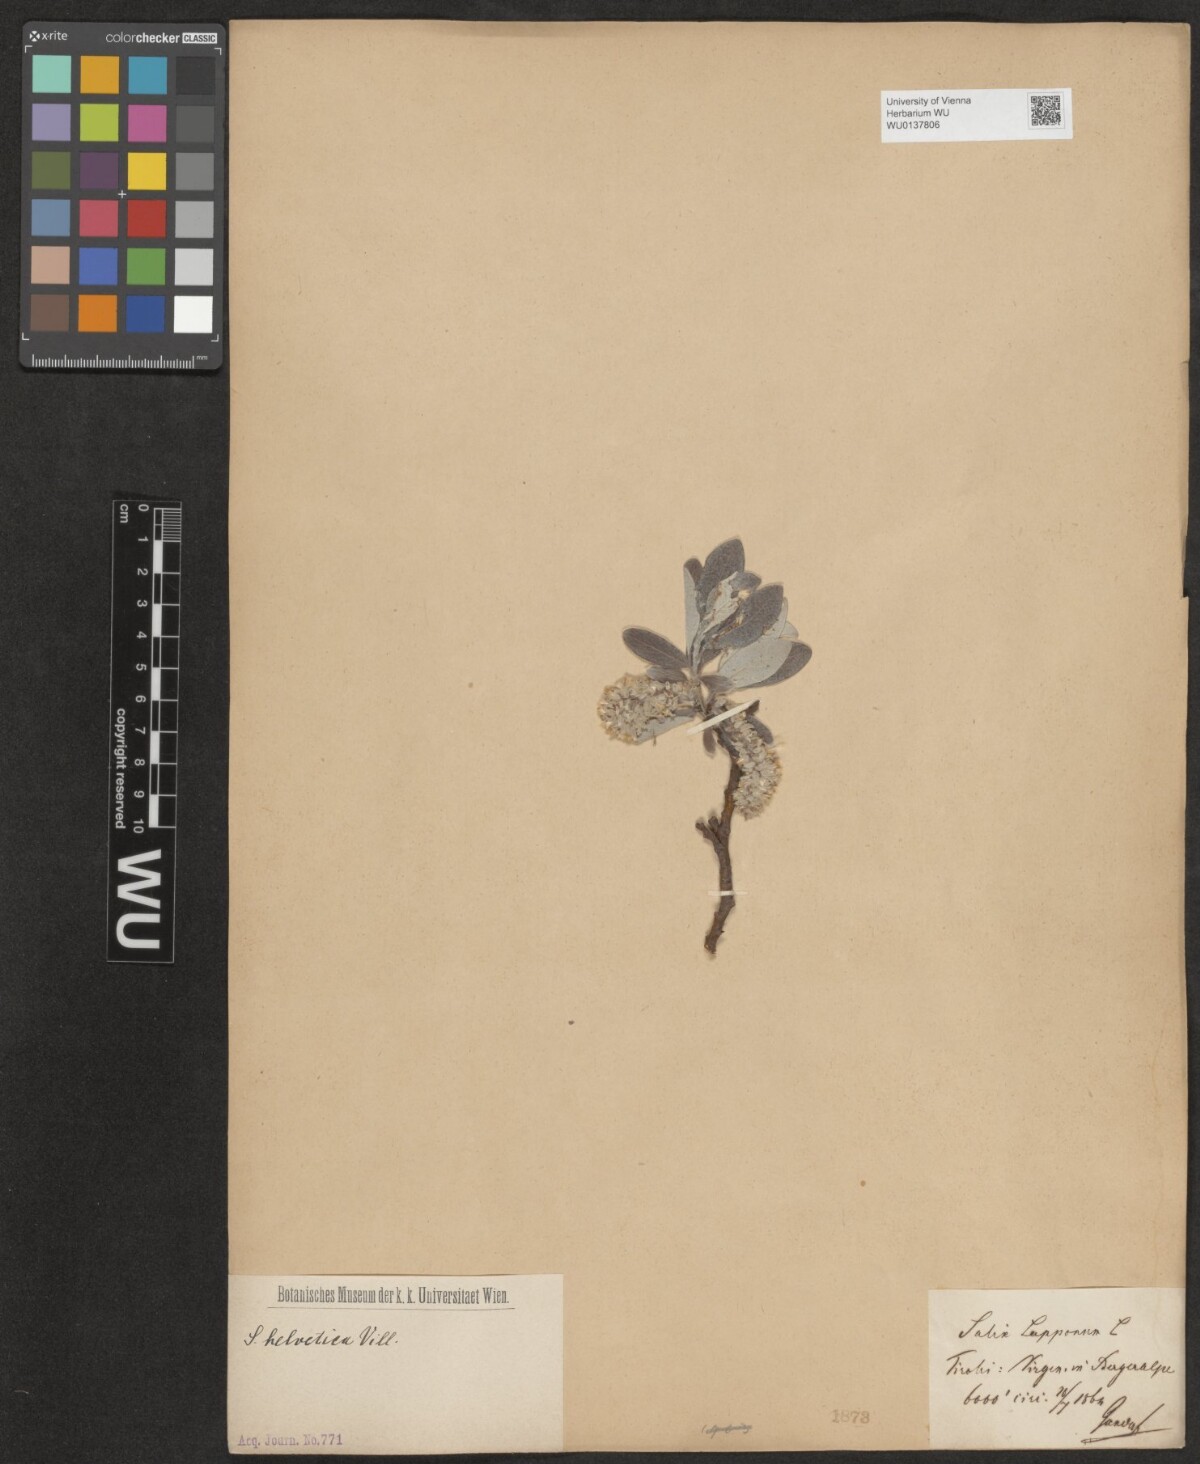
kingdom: Plantae
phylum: Tracheophyta
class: Magnoliopsida
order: Malpighiales
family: Salicaceae
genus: Salix
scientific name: Salix helvetica
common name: Swiss willow
